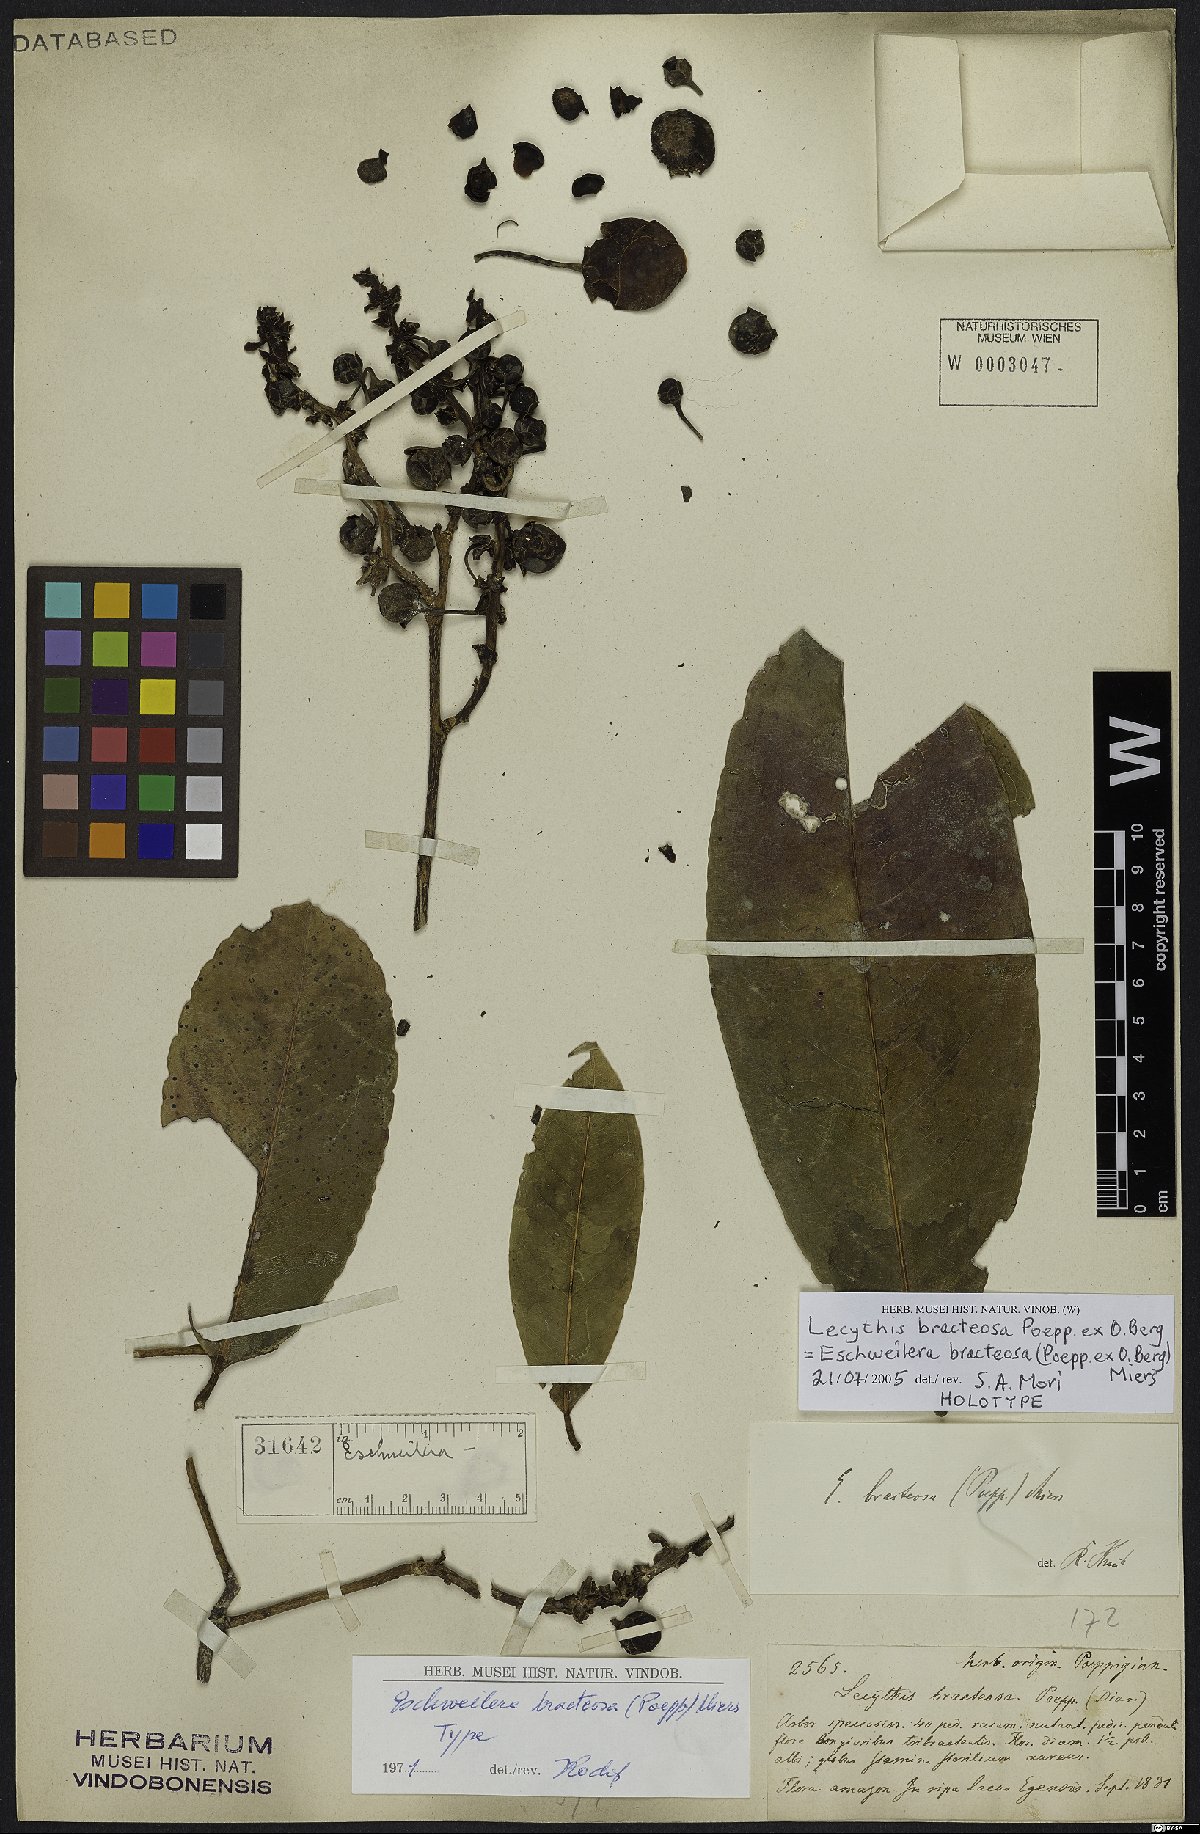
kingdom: Plantae
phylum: Tracheophyta
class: Magnoliopsida
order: Ericales
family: Lecythidaceae
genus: Eschweilera
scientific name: Eschweilera bracteosa
